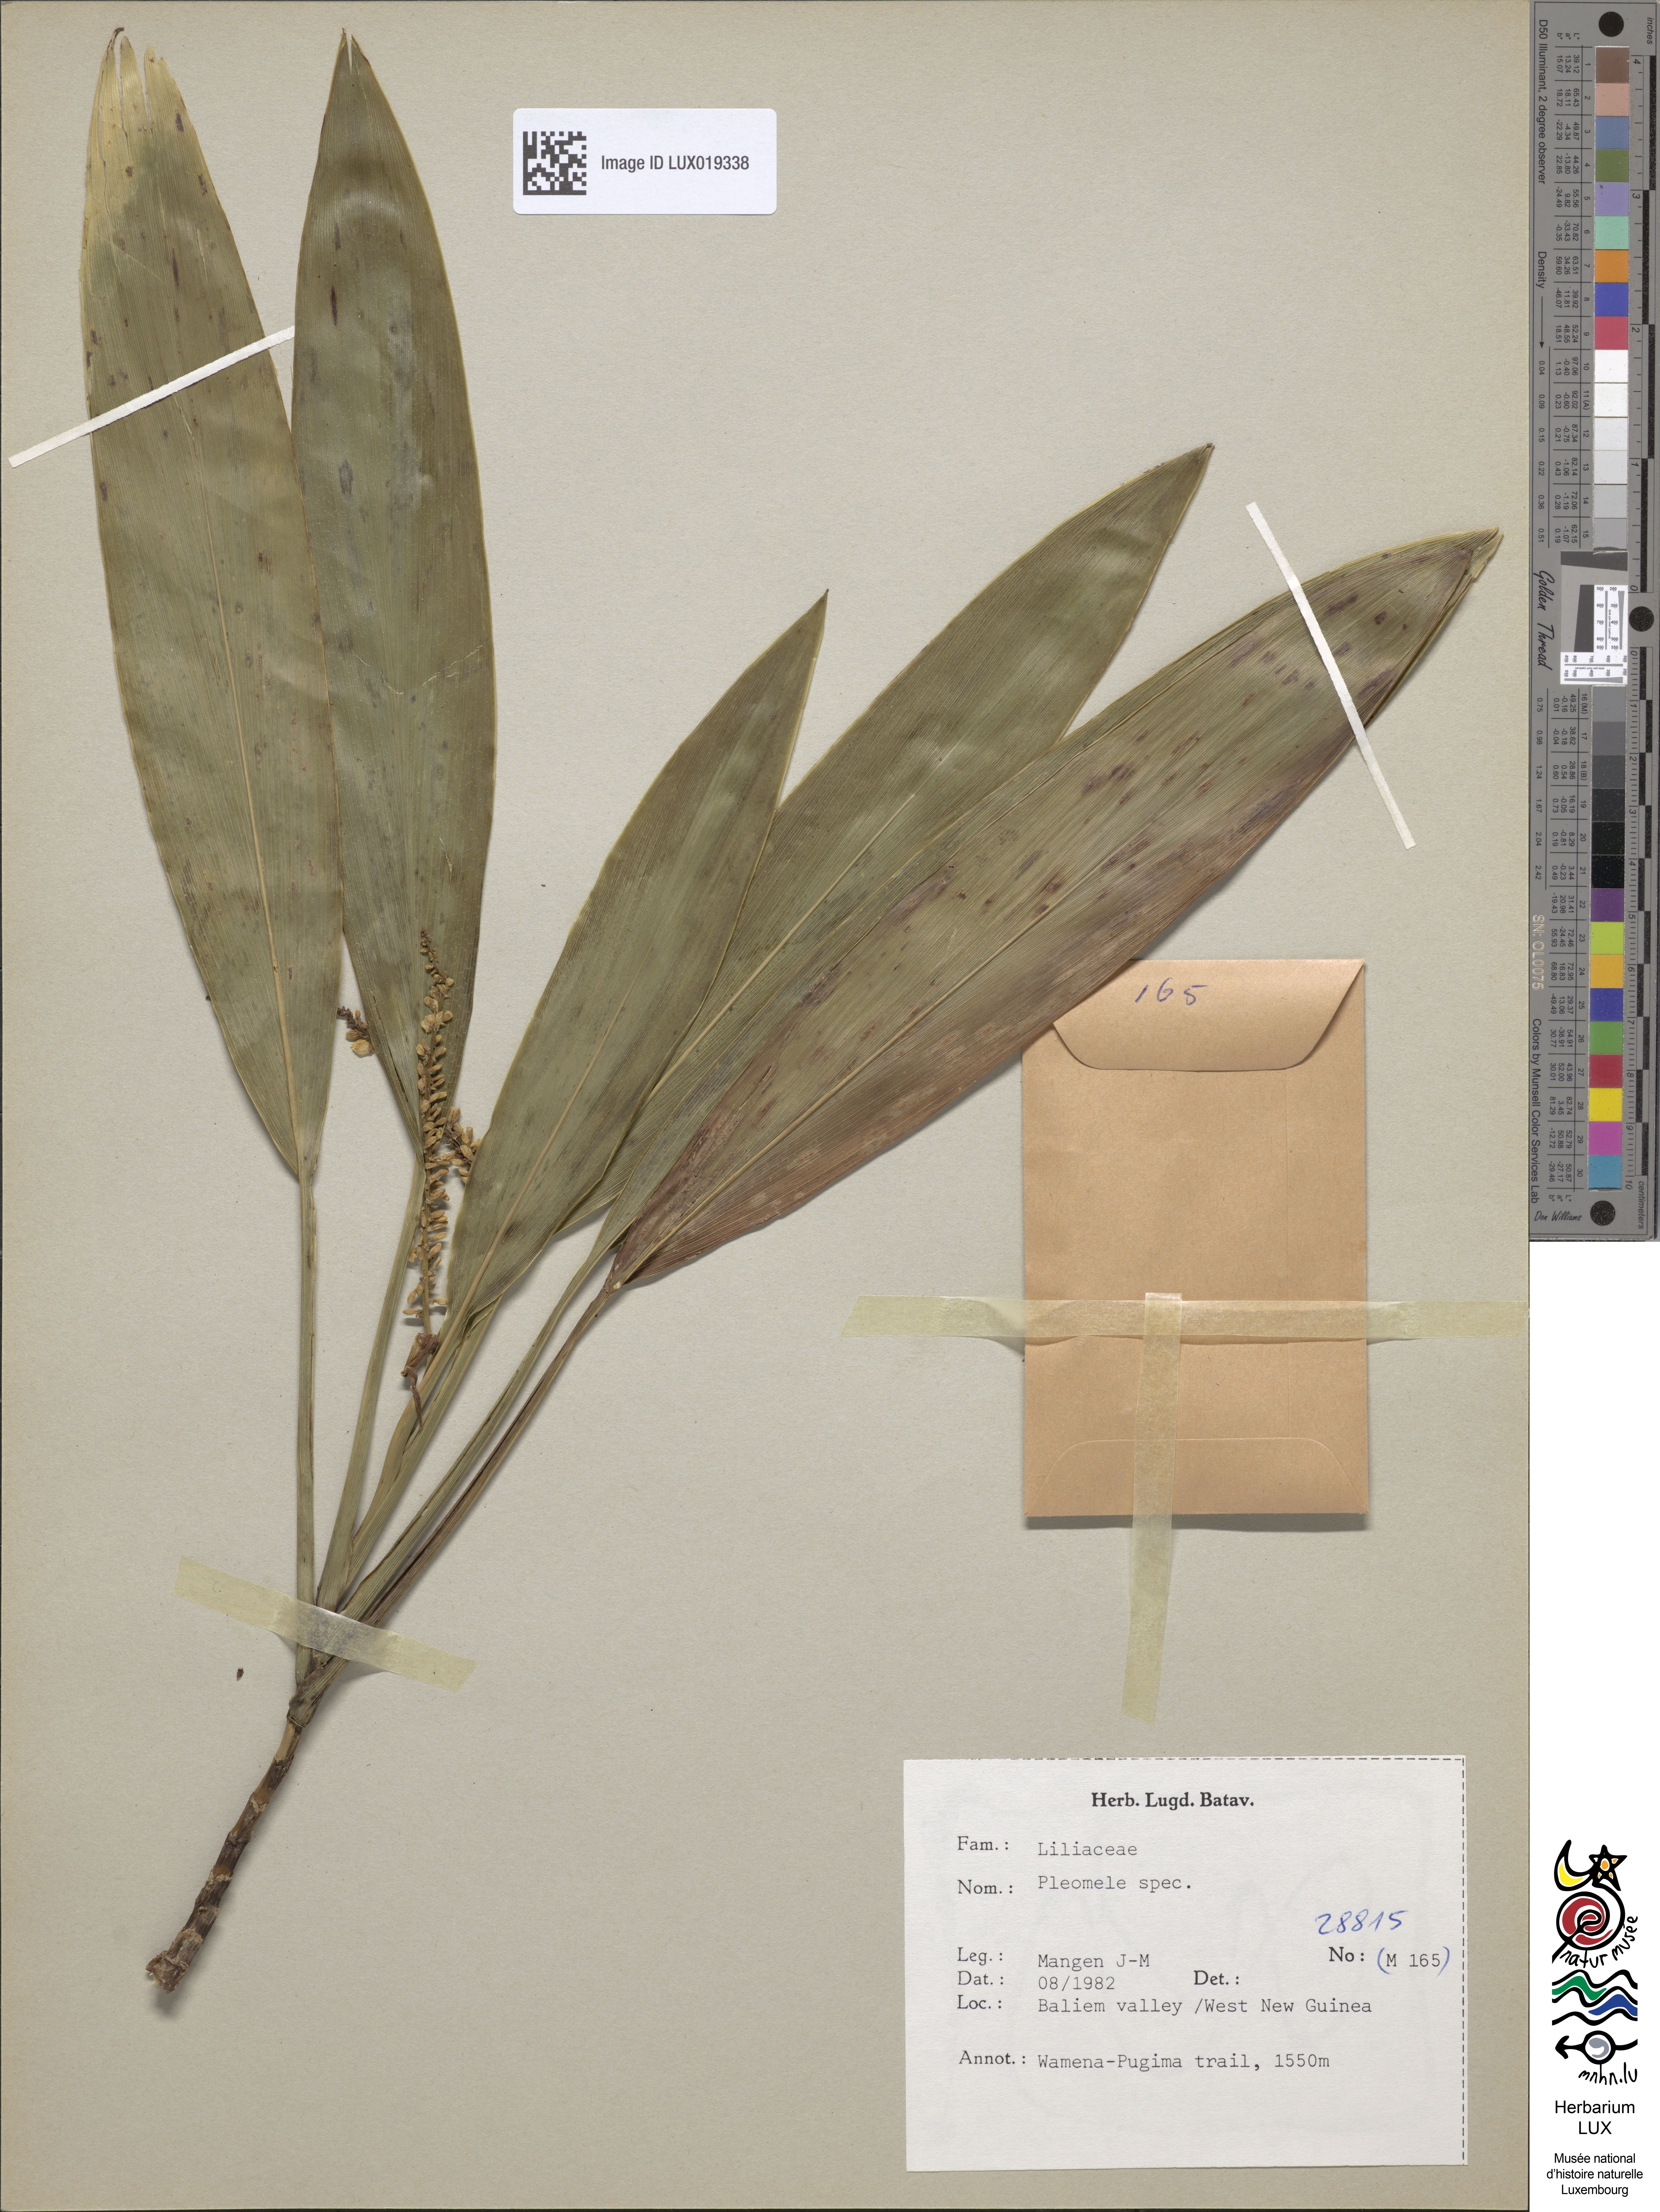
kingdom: Plantae
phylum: Tracheophyta
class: Liliopsida
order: Asparagales
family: Asparagaceae
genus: Dracaena
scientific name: Dracaena
